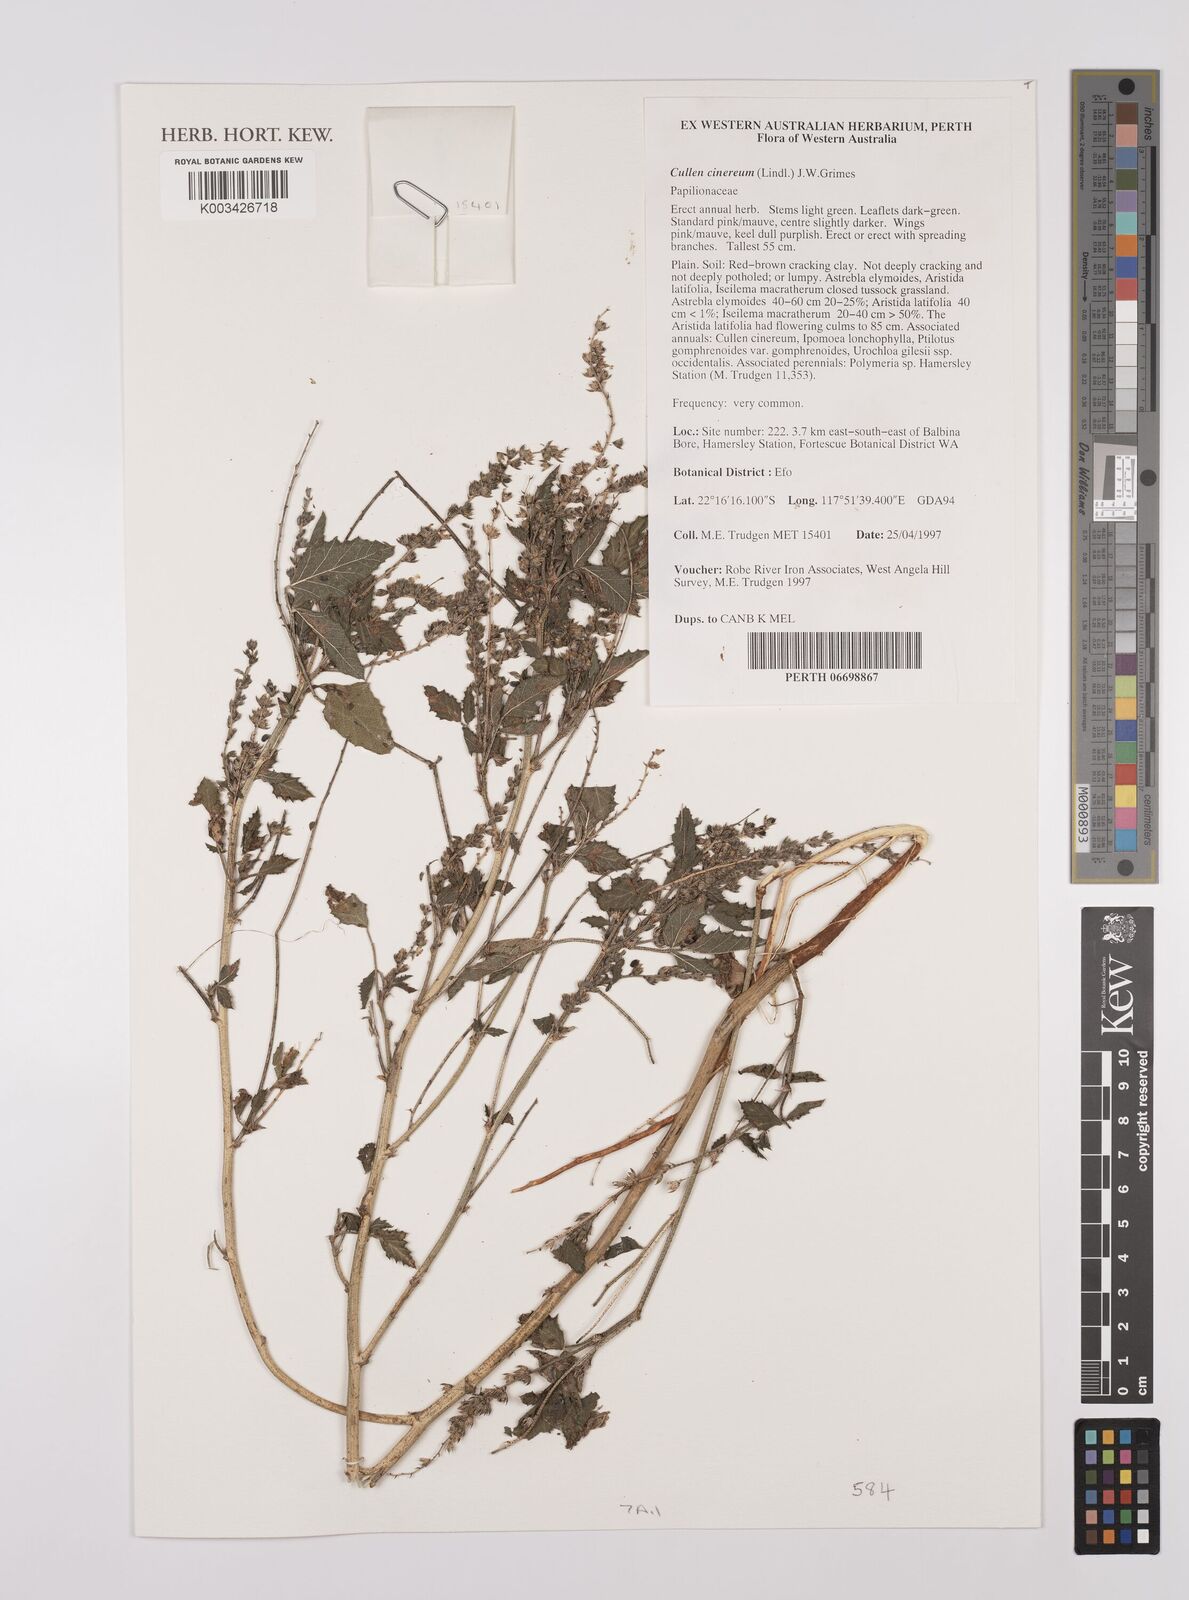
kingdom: Plantae
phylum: Tracheophyta
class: Magnoliopsida
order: Fabales
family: Fabaceae
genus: Cullen
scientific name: Cullen cinereum
